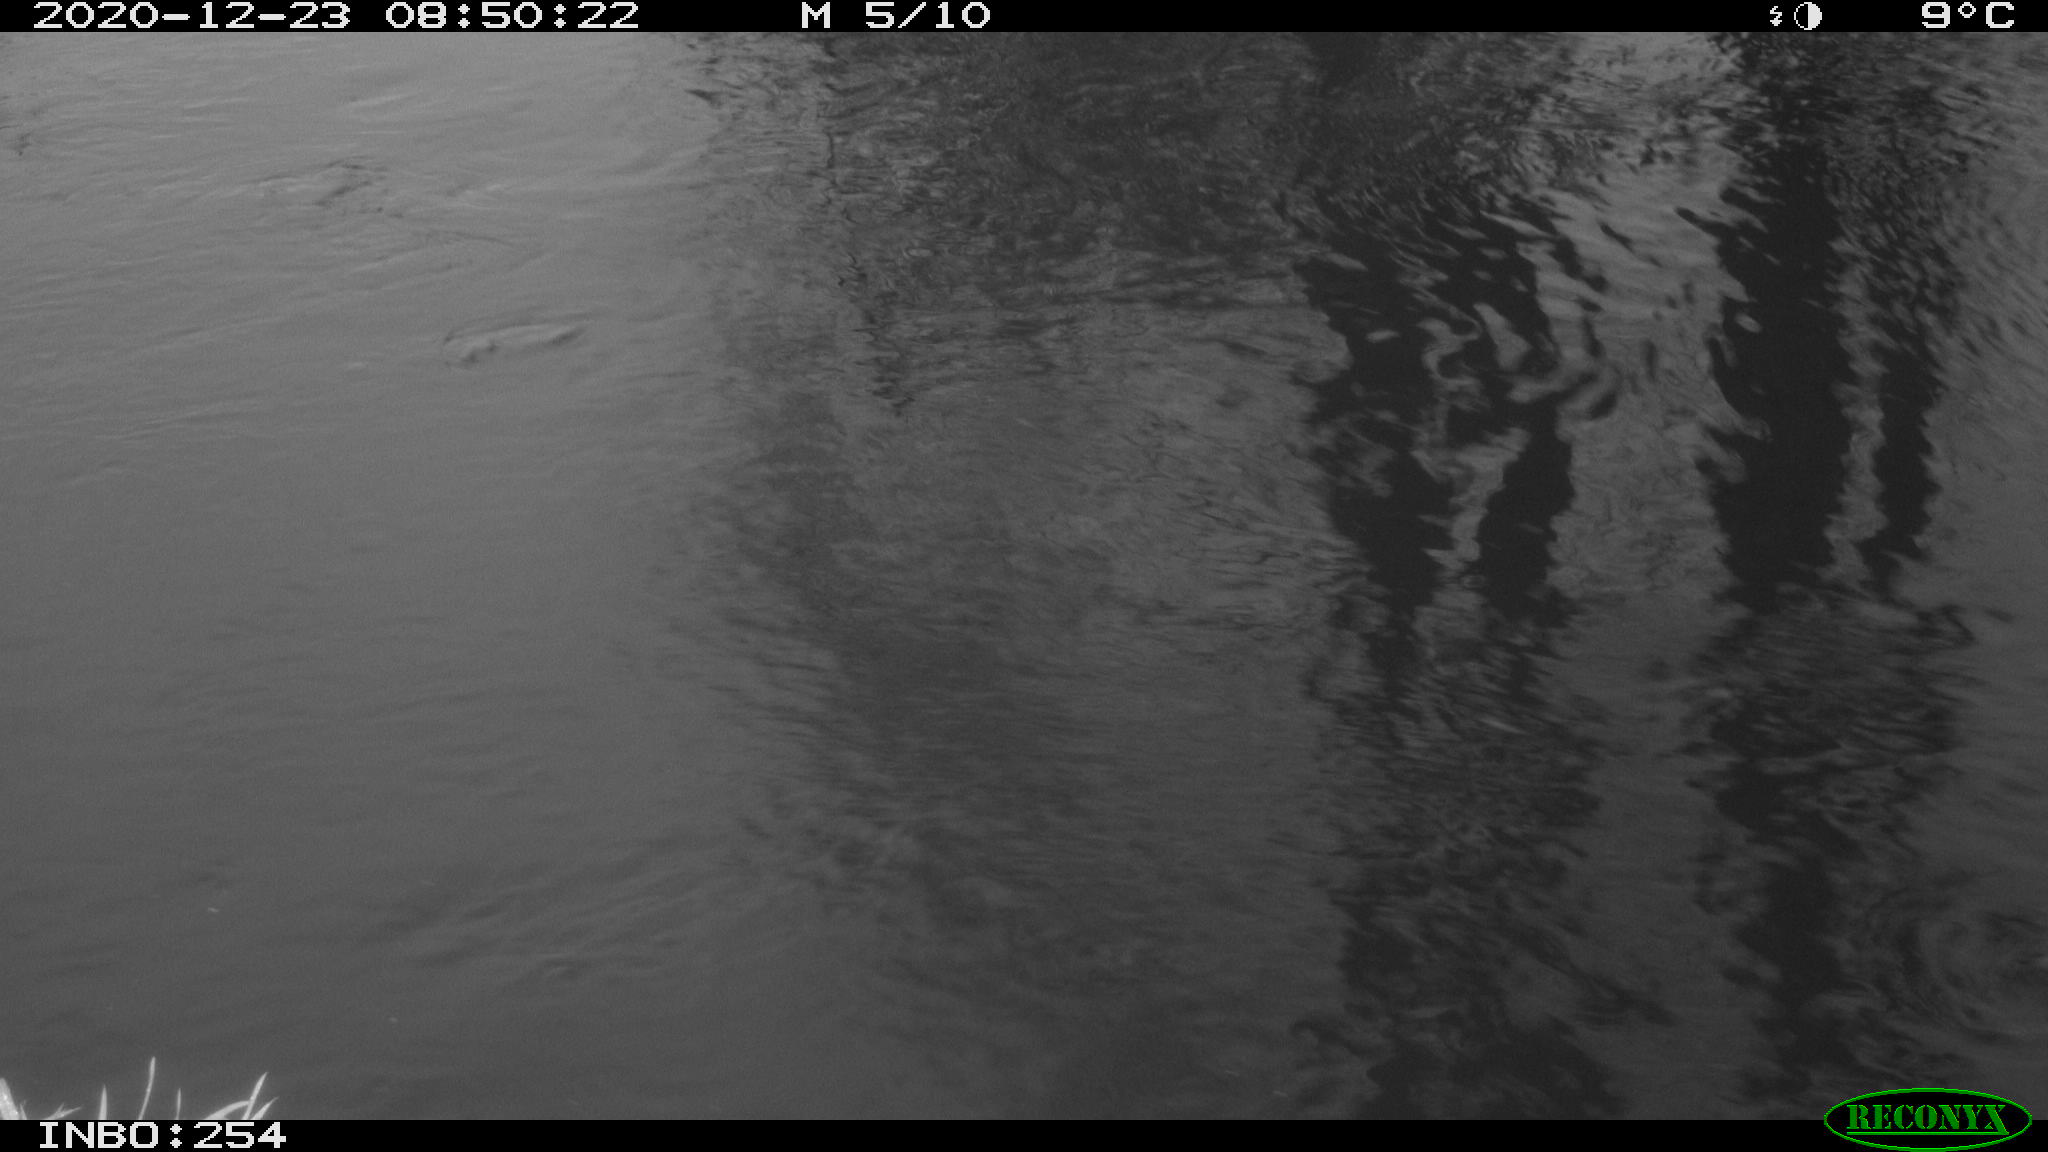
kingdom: Animalia
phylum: Chordata
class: Aves
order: Gruiformes
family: Rallidae
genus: Gallinula
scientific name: Gallinula chloropus
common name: Common moorhen
